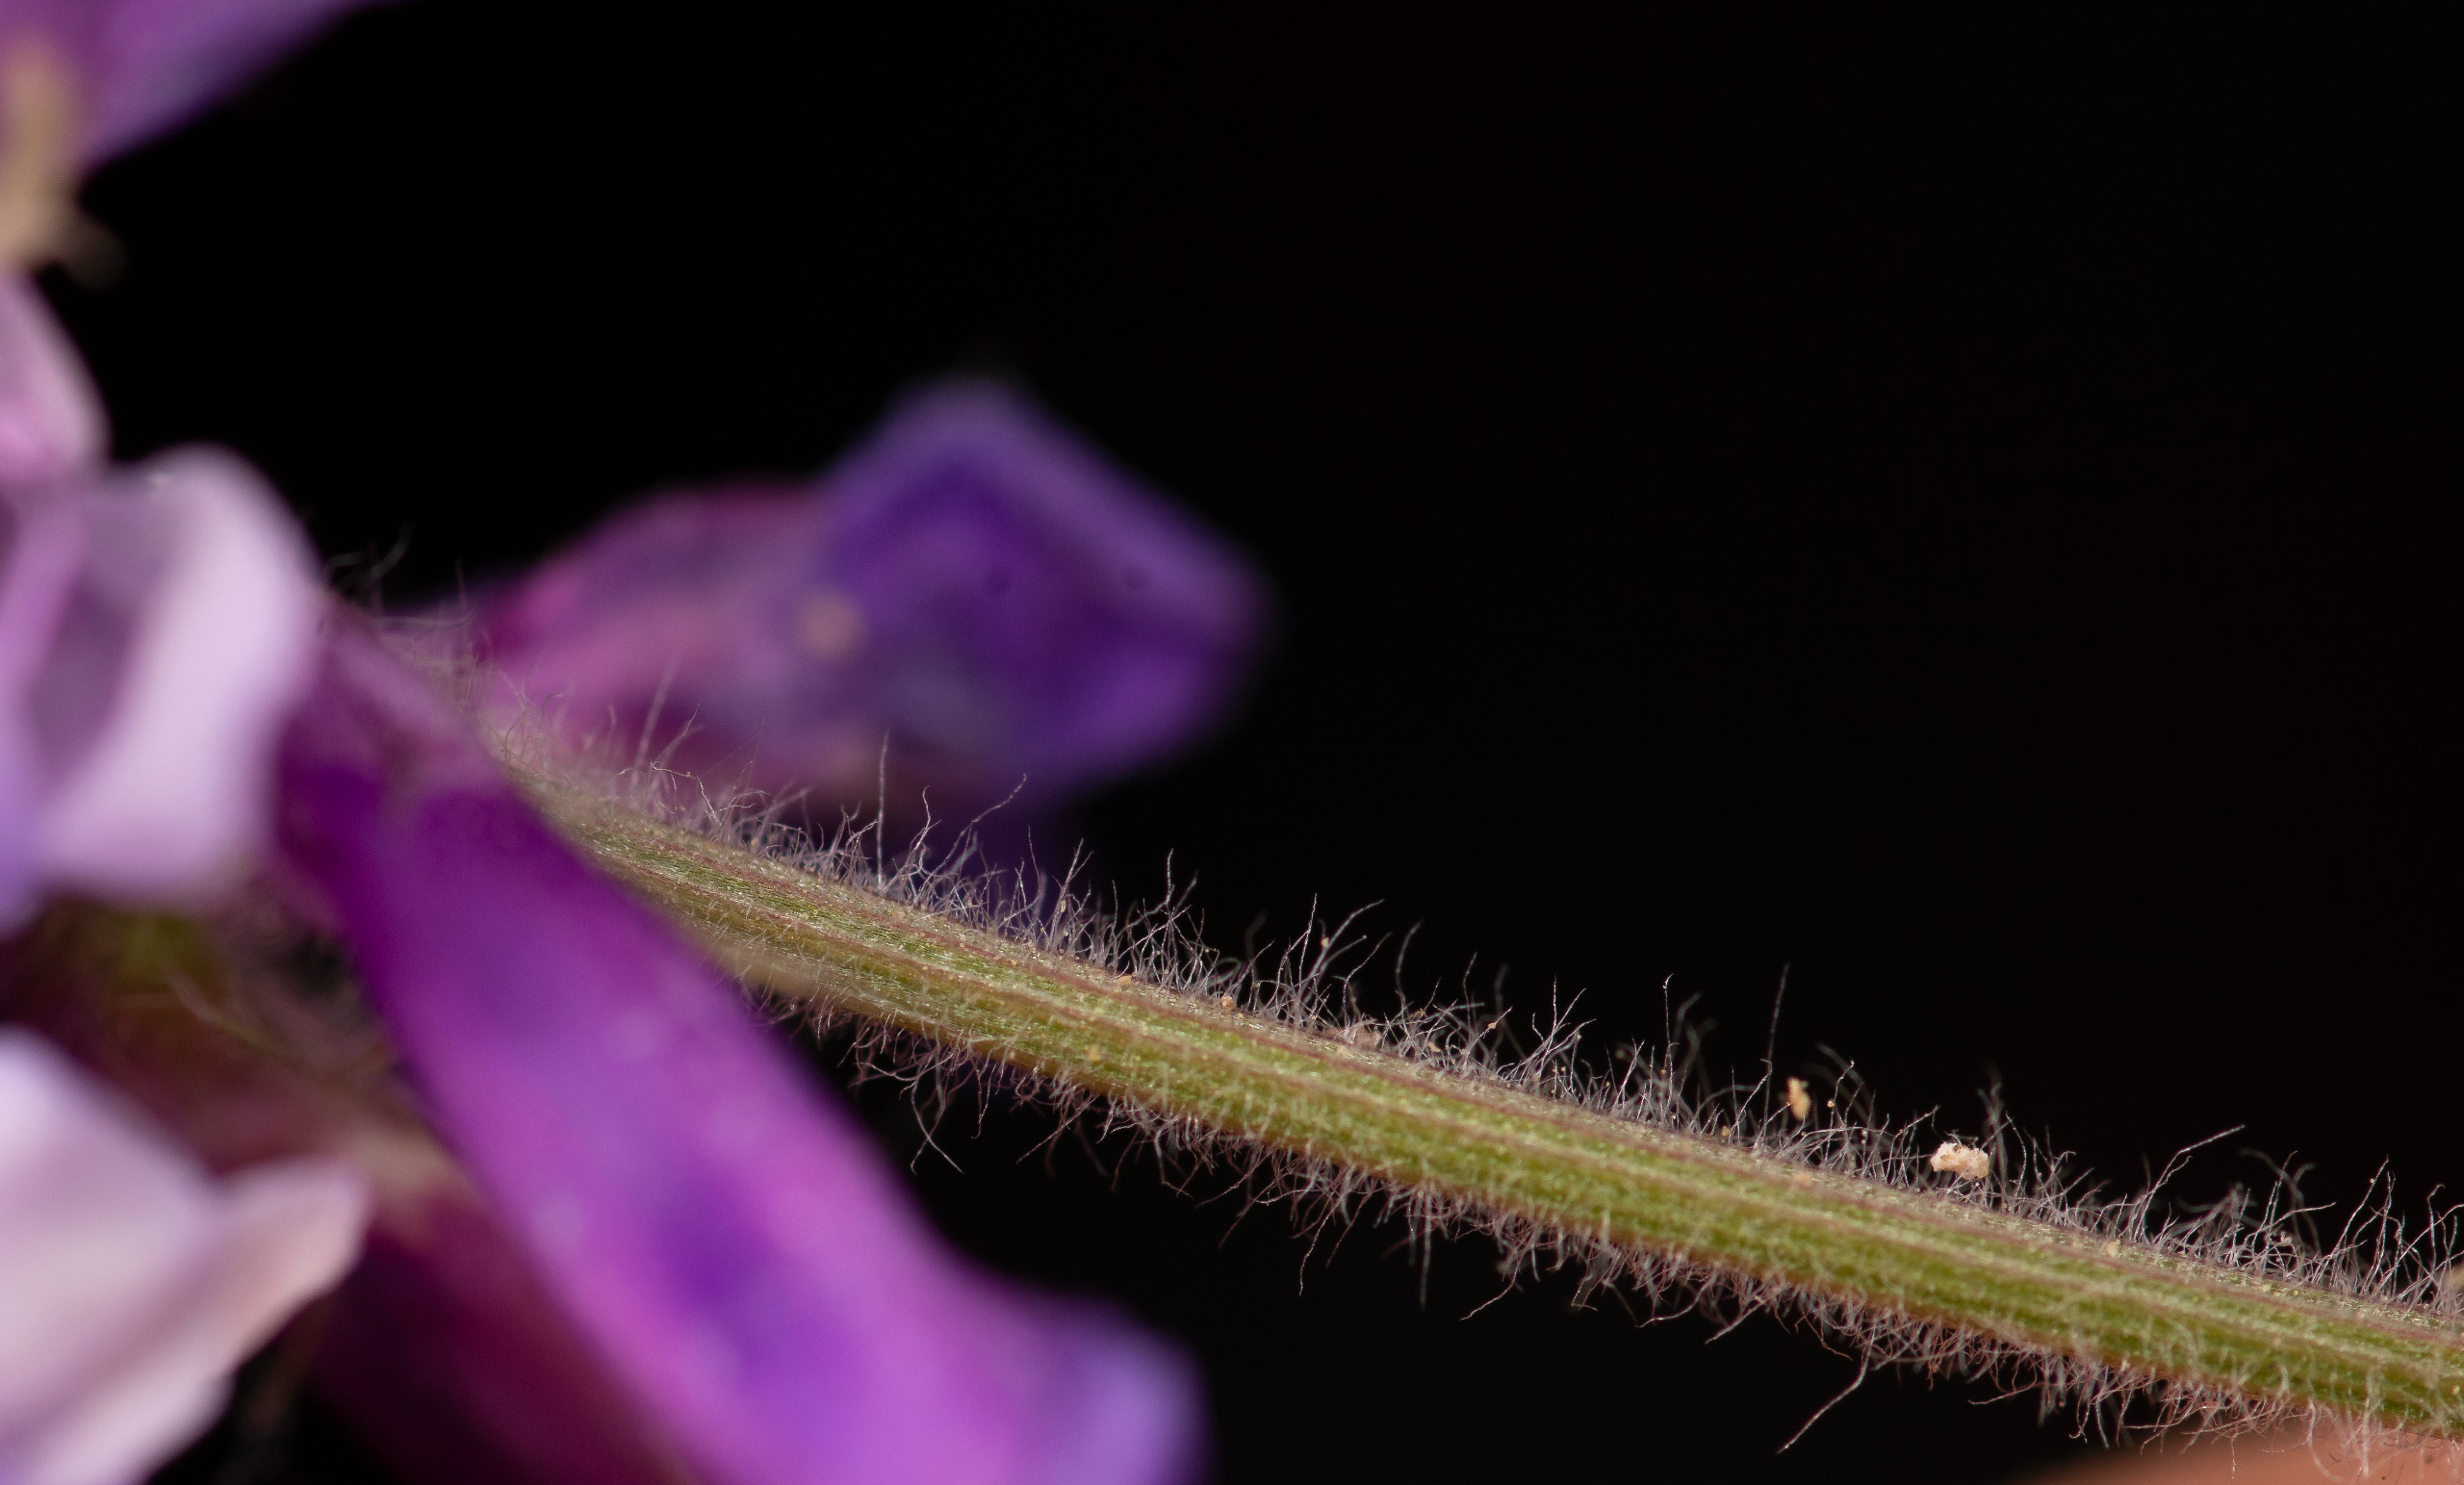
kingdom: Plantae
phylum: Tracheophyta
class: Magnoliopsida
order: Fabales
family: Fabaceae
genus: Vicia
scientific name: Vicia villosa
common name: Sand-vikke
